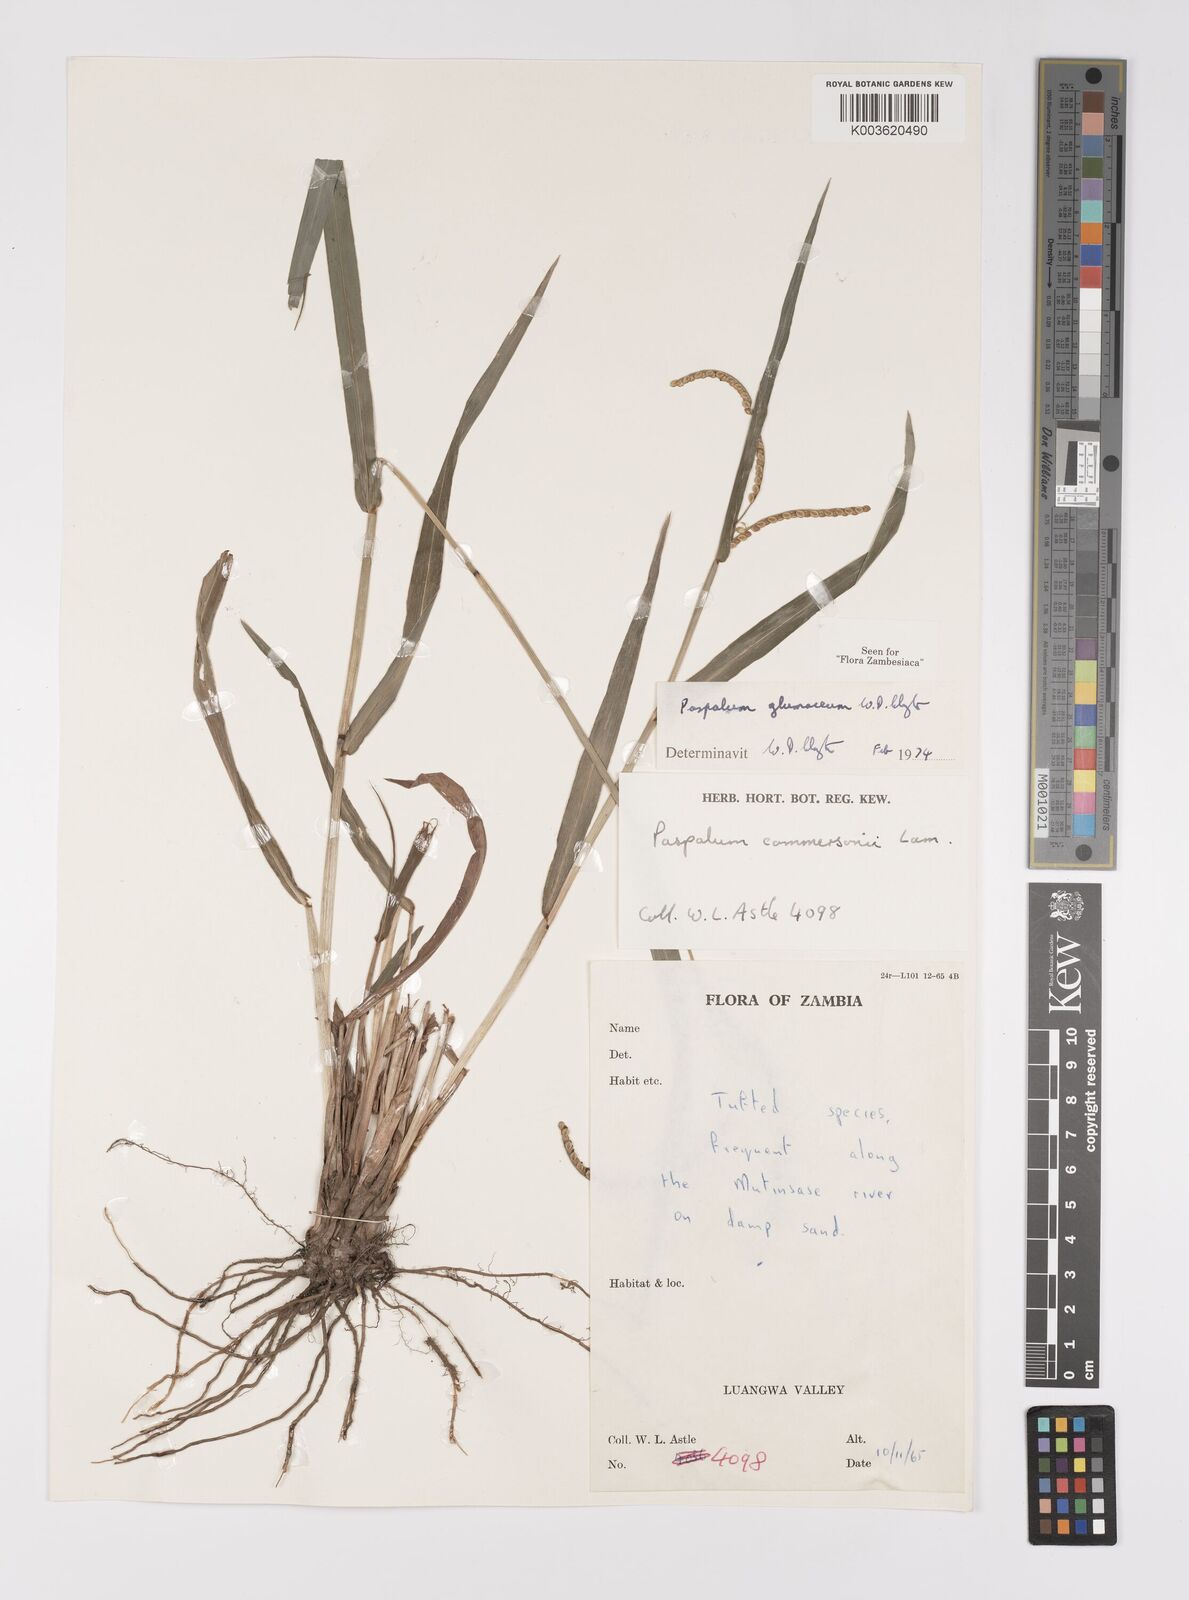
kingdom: Plantae
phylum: Tracheophyta
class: Liliopsida
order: Poales
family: Poaceae
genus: Paspalum
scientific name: Paspalum glumaceum
